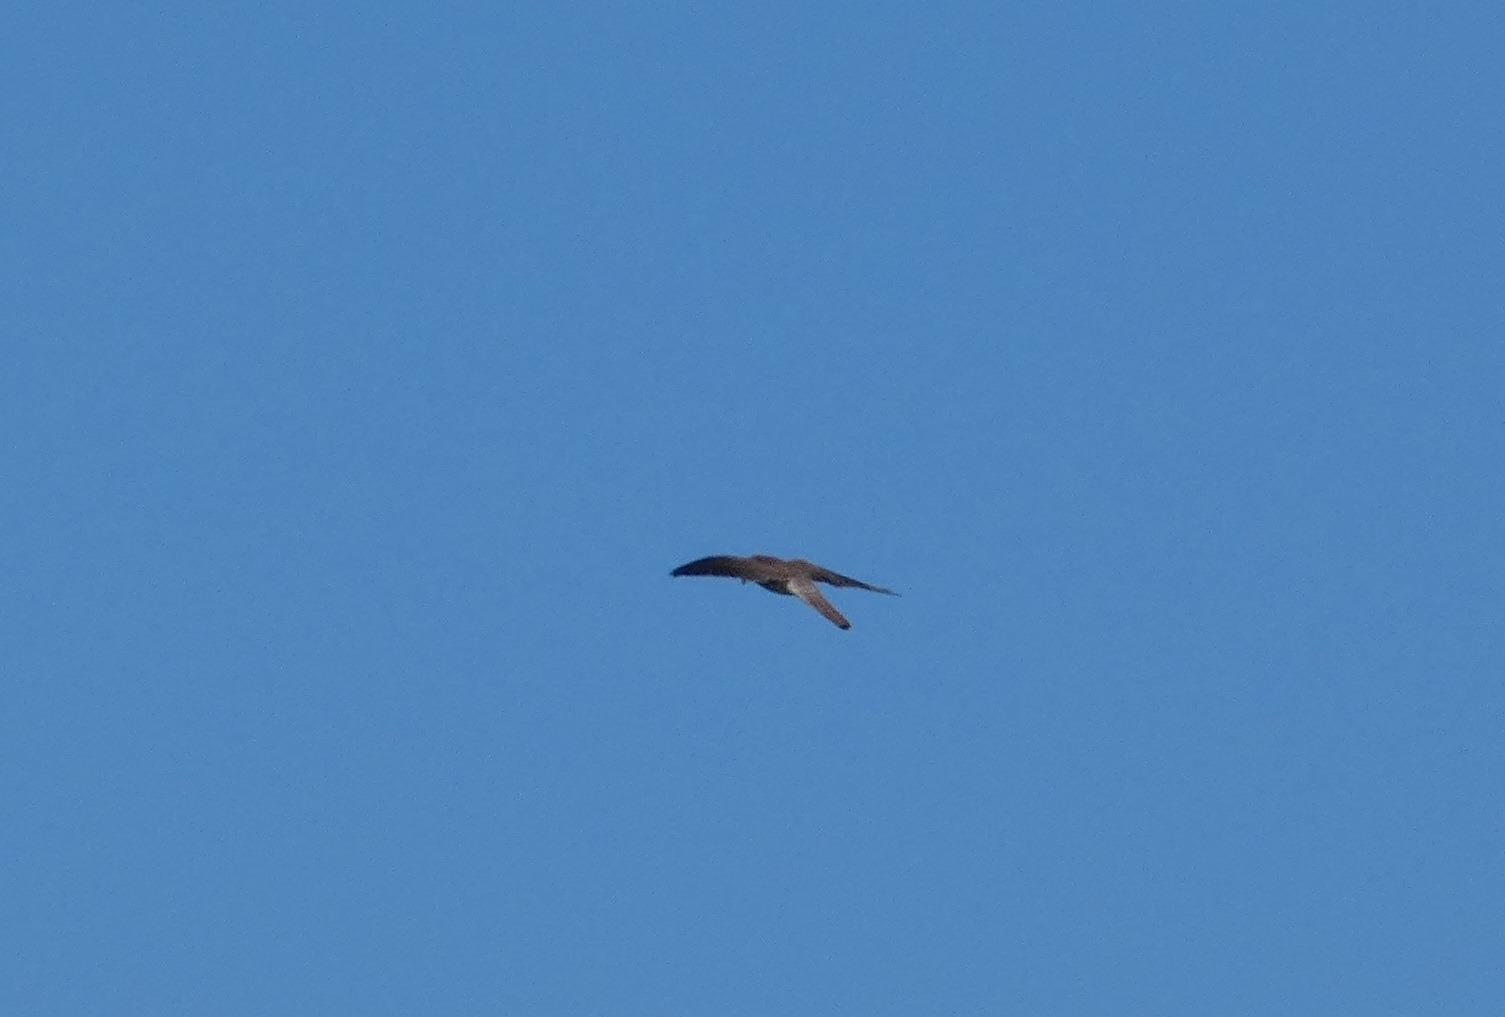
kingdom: Animalia
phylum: Chordata
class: Aves
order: Falconiformes
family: Falconidae
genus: Falco
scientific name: Falco tinnunculus
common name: Tårnfalk
